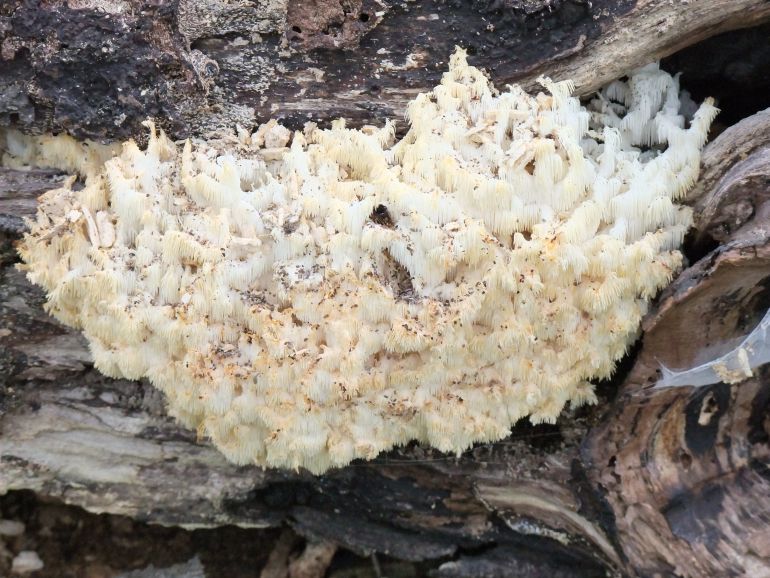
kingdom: Fungi
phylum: Basidiomycota
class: Agaricomycetes
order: Russulales
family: Hericiaceae
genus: Hericium
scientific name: Hericium coralloides
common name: koralpigsvamp
